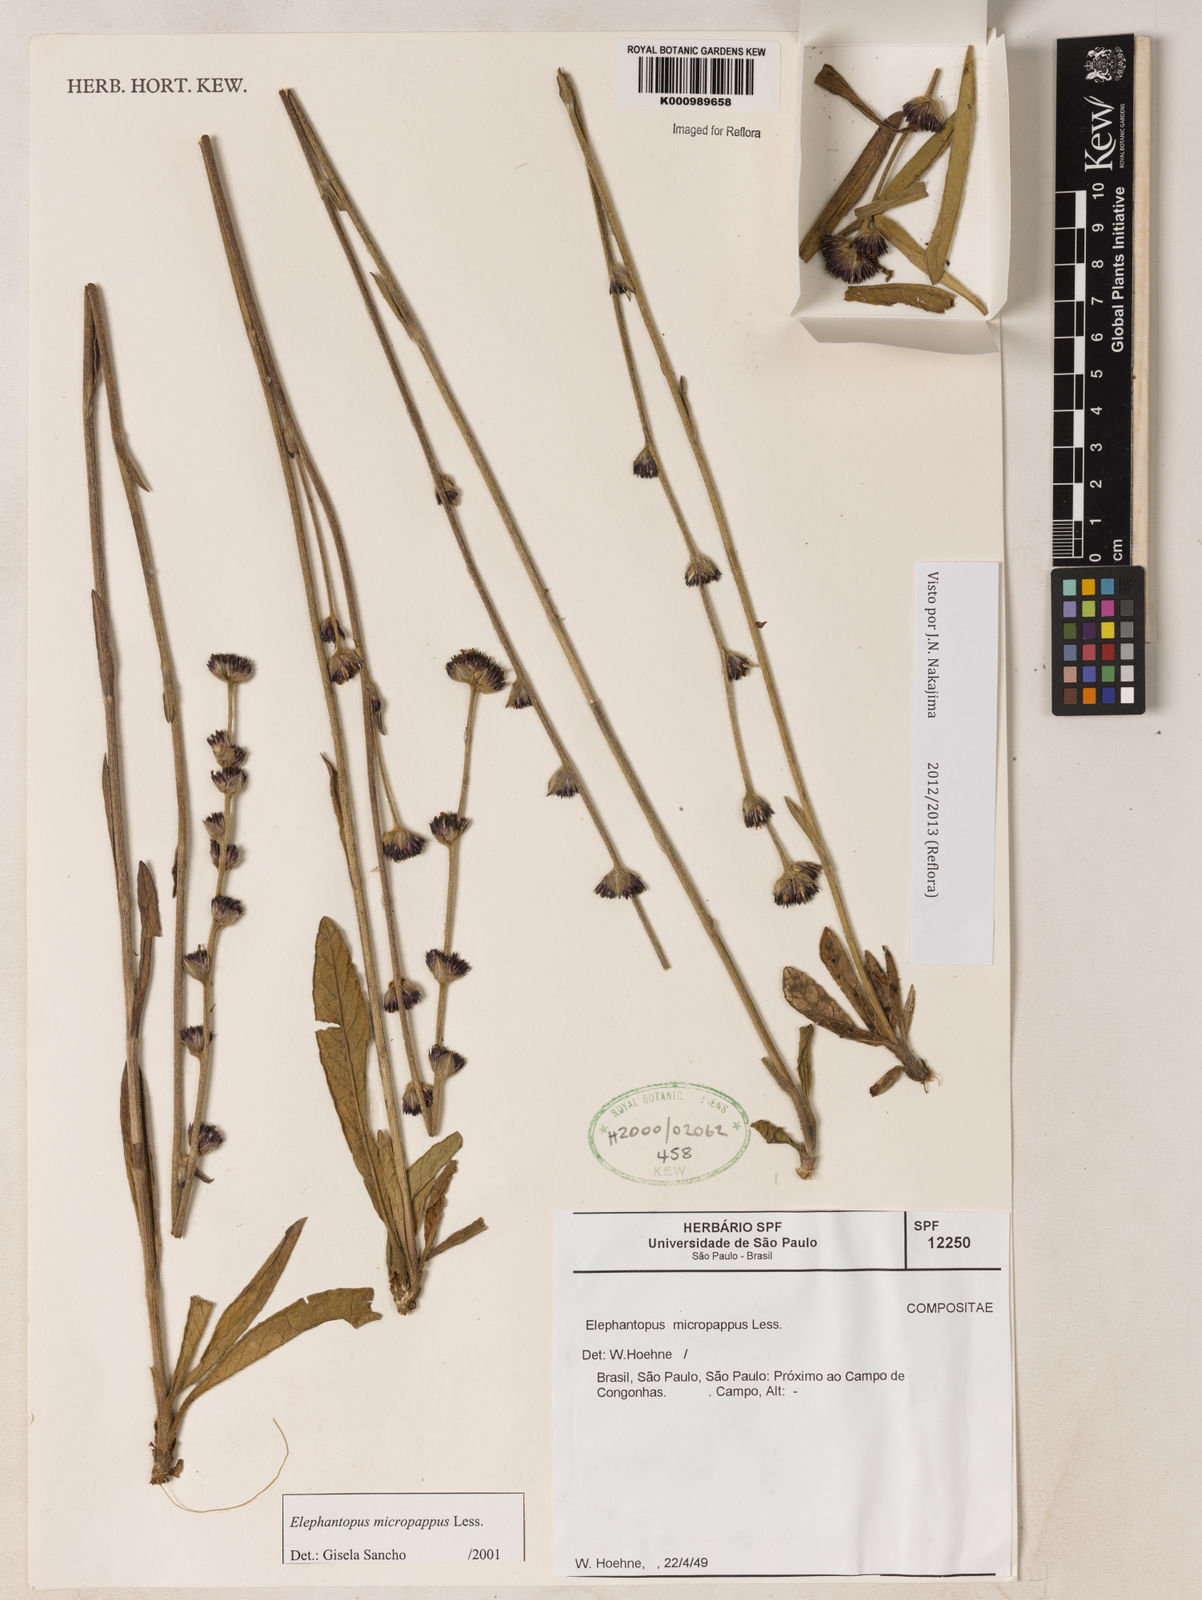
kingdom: Plantae
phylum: Tracheophyta
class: Magnoliopsida
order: Asterales
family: Asteraceae
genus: Elephantopus
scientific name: Elephantopus micropappus
